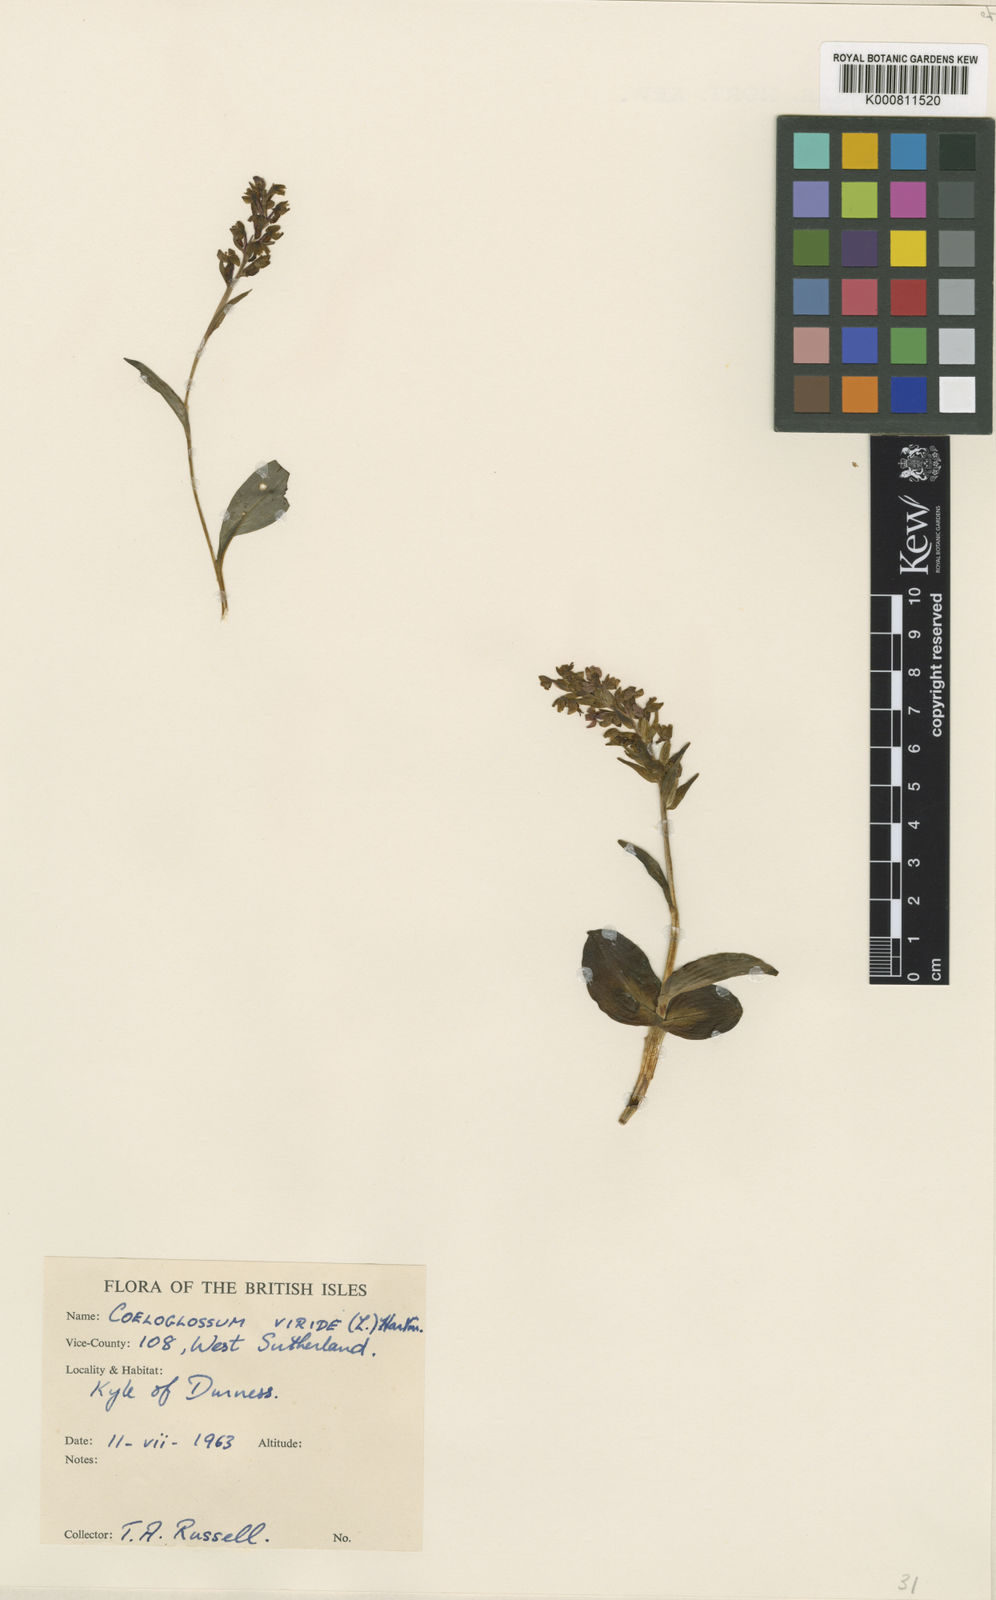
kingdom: Plantae
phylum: Tracheophyta
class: Liliopsida
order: Asparagales
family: Orchidaceae
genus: Dactylorhiza
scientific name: Dactylorhiza viridis
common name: Longbract frog orchid
